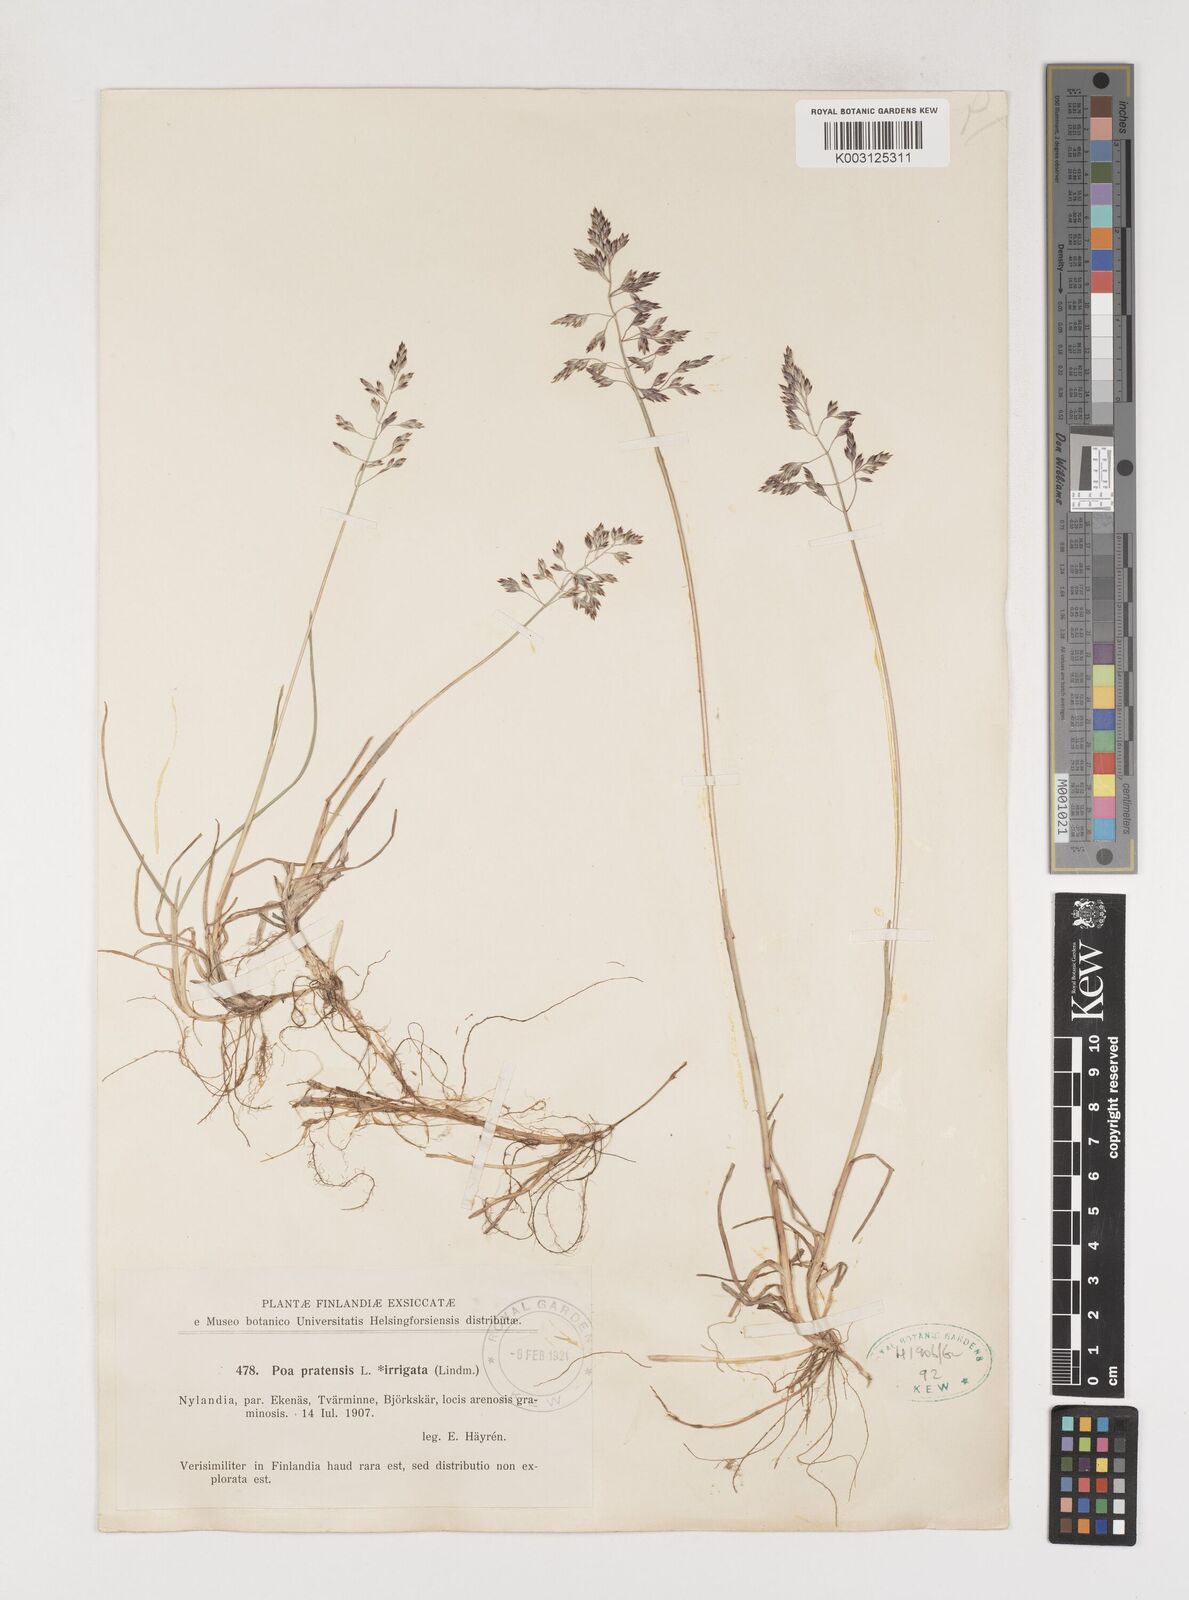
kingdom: Plantae
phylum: Tracheophyta
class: Liliopsida
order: Poales
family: Poaceae
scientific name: Poaceae
